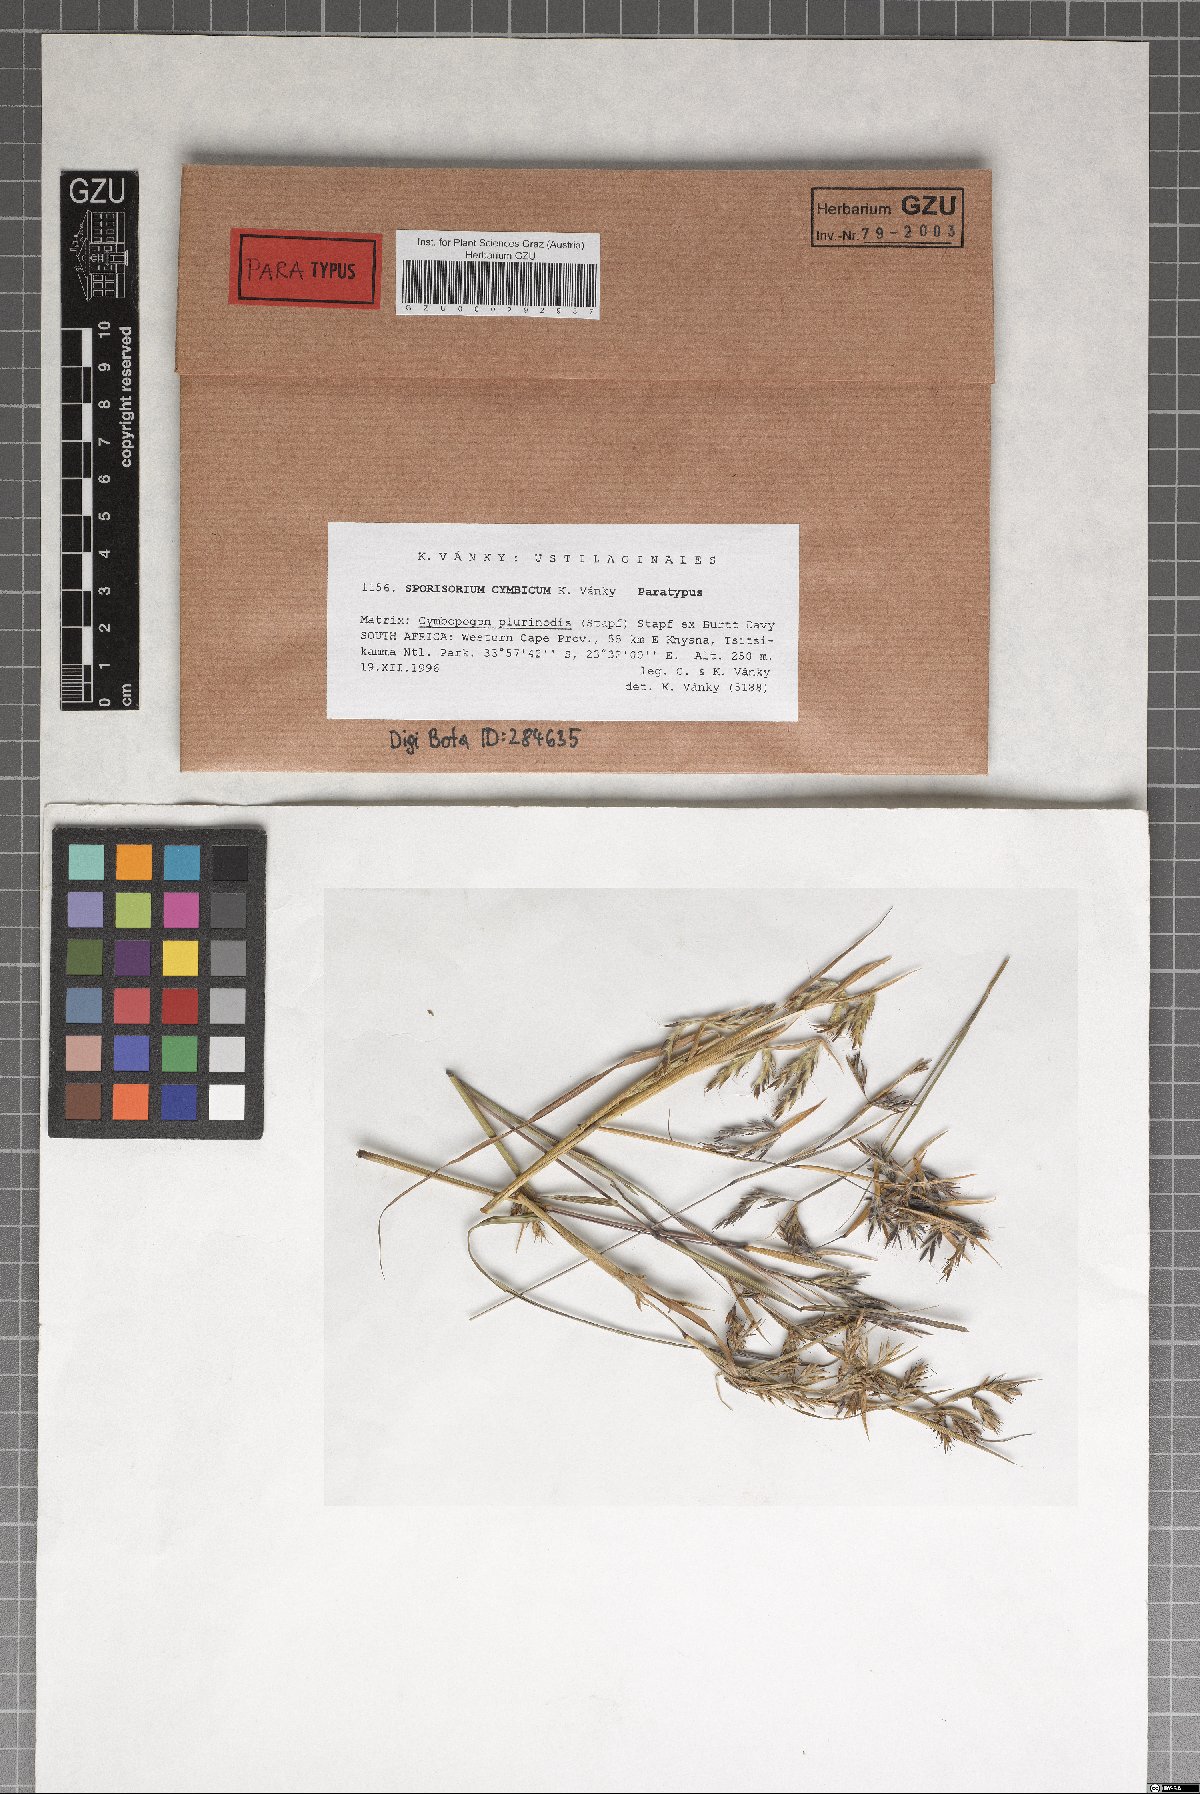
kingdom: Fungi
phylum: Basidiomycota
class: Ustilaginomycetes
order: Ustilaginales
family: Ustilaginaceae
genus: Sporisorium
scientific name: Sporisorium cymbicum
